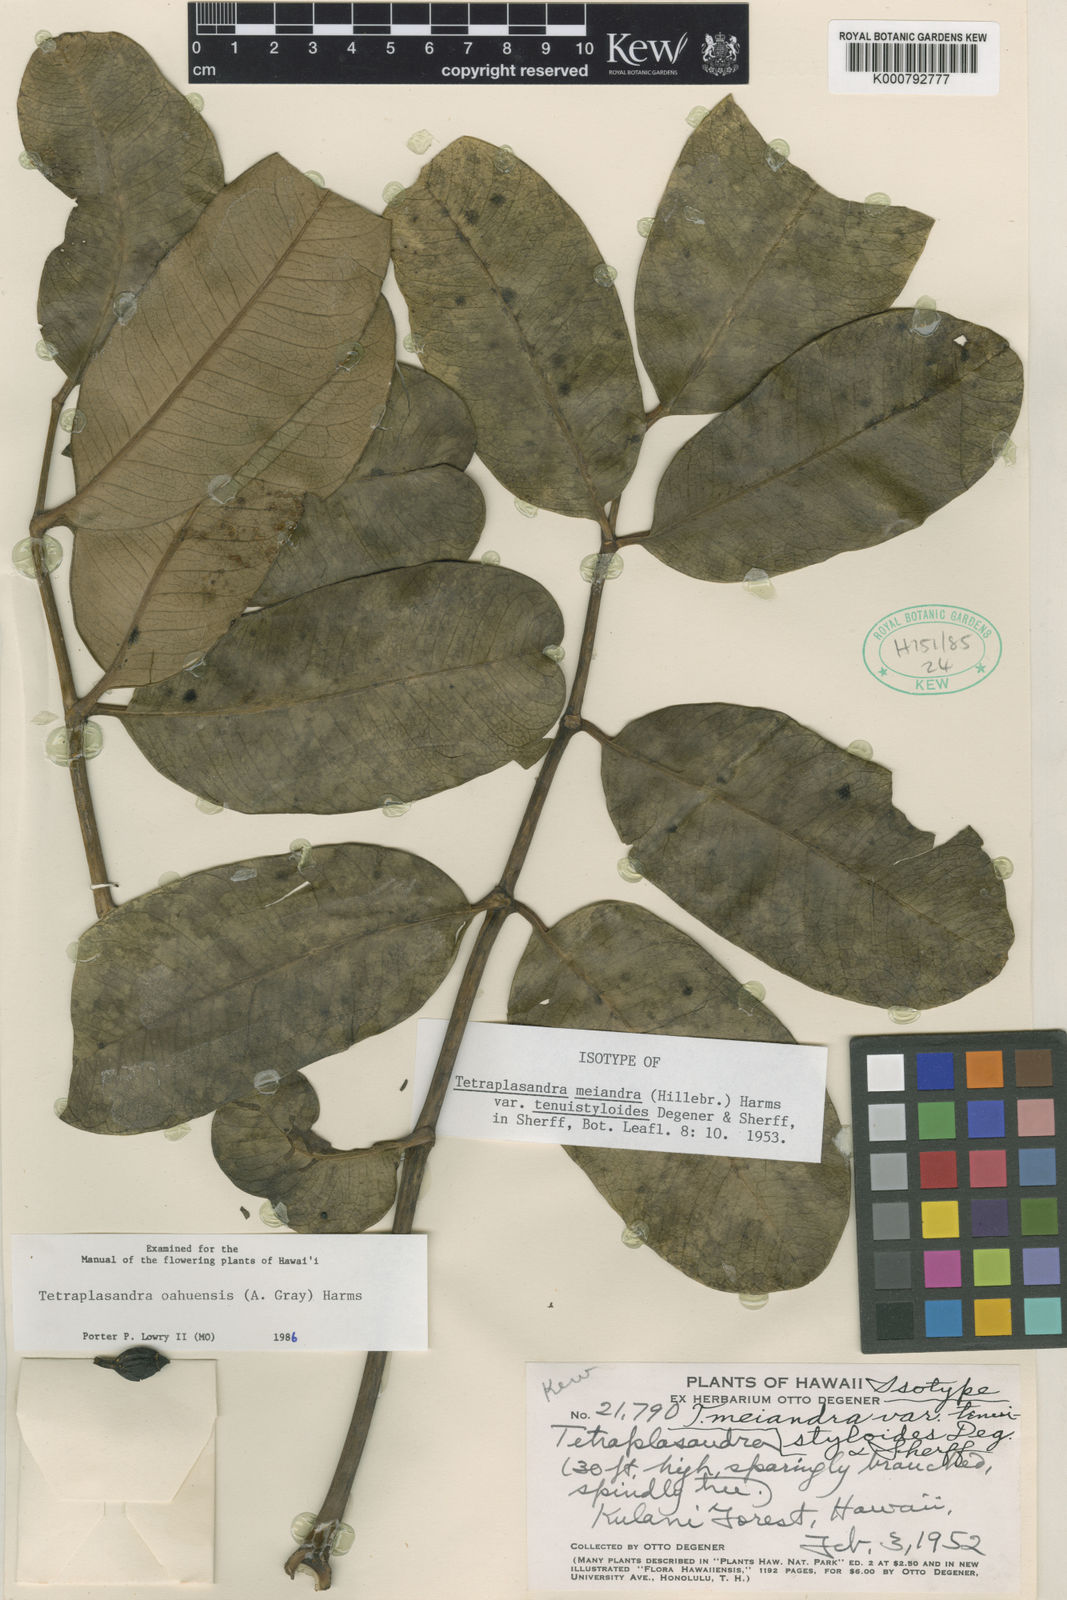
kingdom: Plantae
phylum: Tracheophyta
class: Magnoliopsida
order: Apiales
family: Araliaceae
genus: Polyscias
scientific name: Polyscias oahuensis
